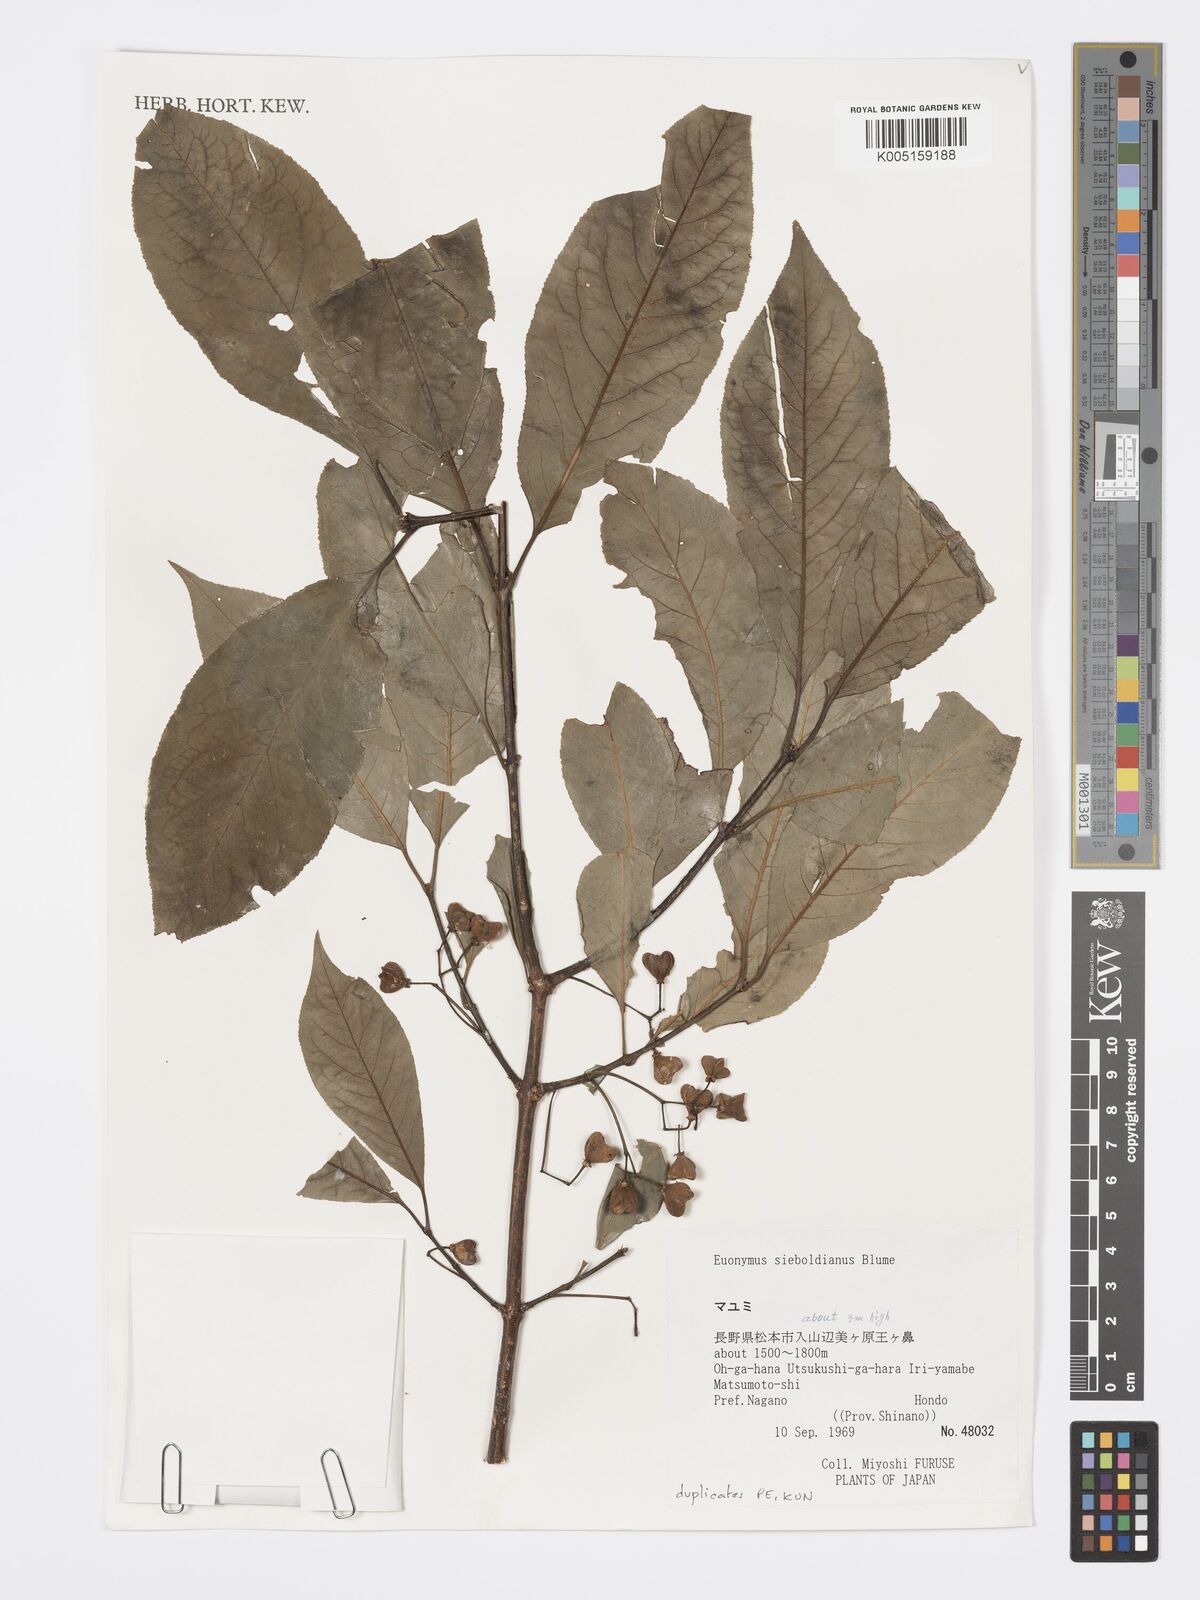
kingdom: Plantae
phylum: Tracheophyta
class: Magnoliopsida
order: Celastrales
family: Celastraceae
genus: Euonymus
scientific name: Euonymus hamiltonianus
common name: Hamilton's spindletree
